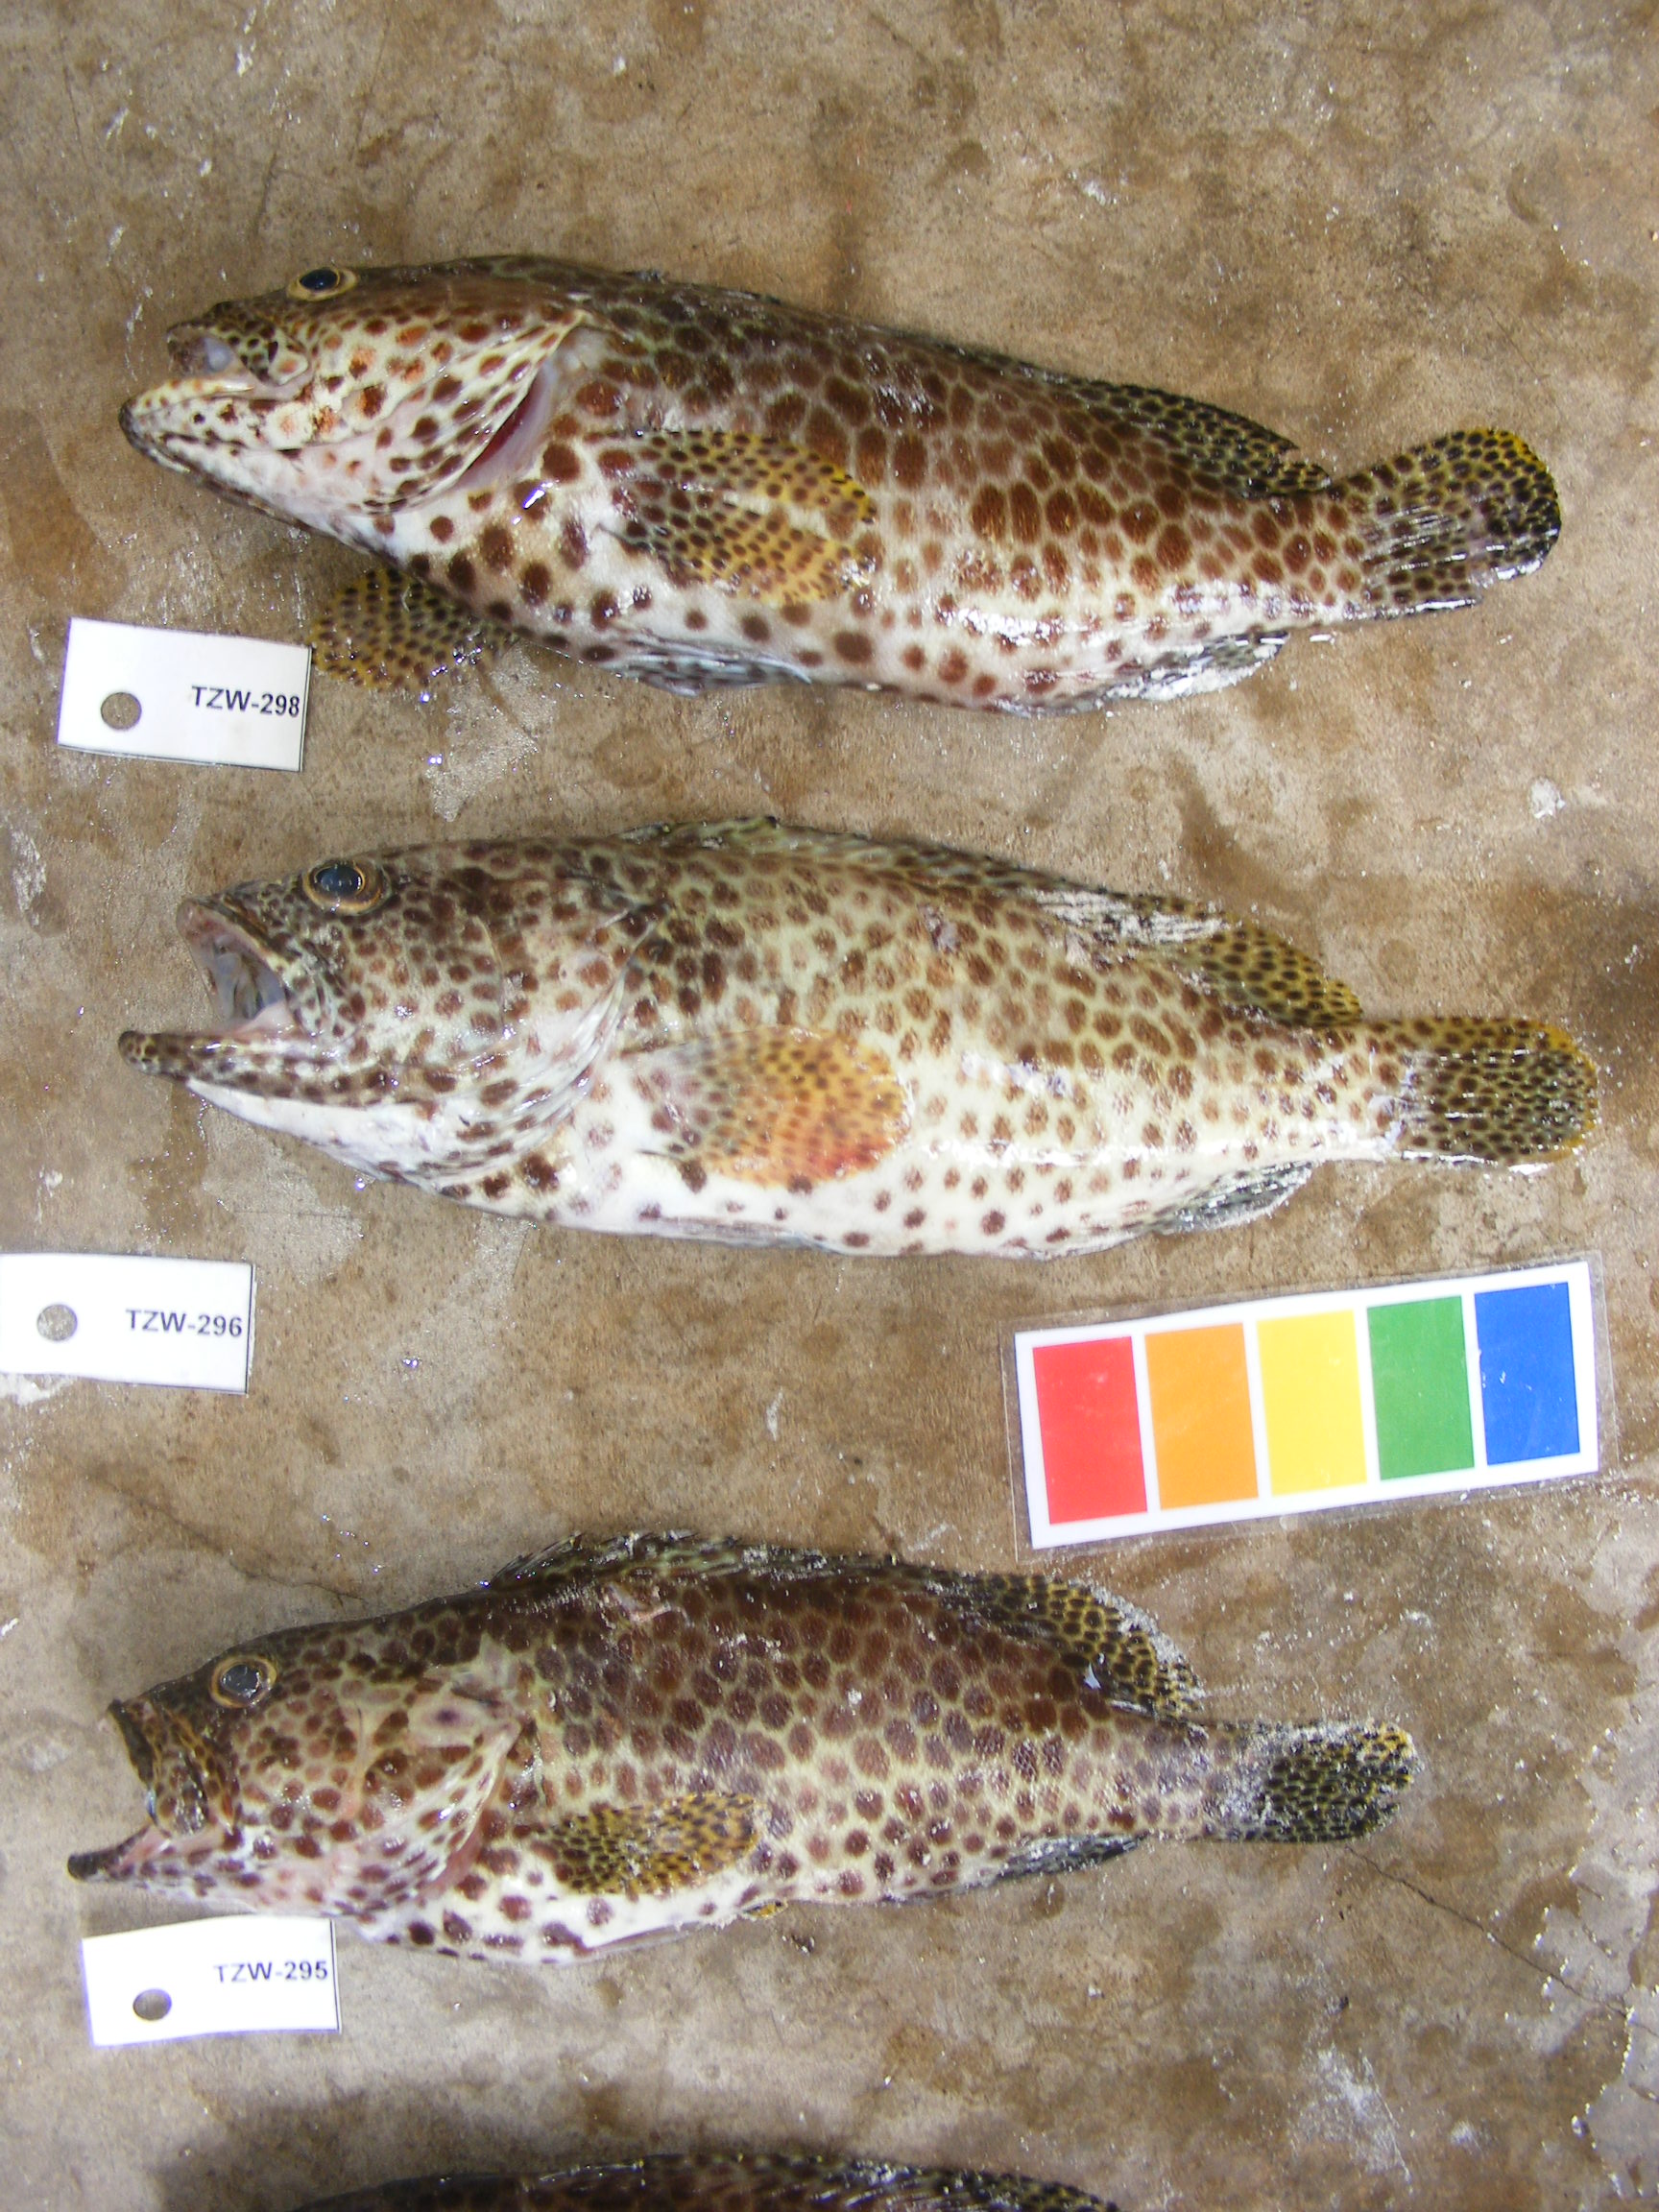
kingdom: Animalia
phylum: Chordata
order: Perciformes
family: Serranidae
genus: Epinephelus
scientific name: Epinephelus merra
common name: Honeycomb grouper
